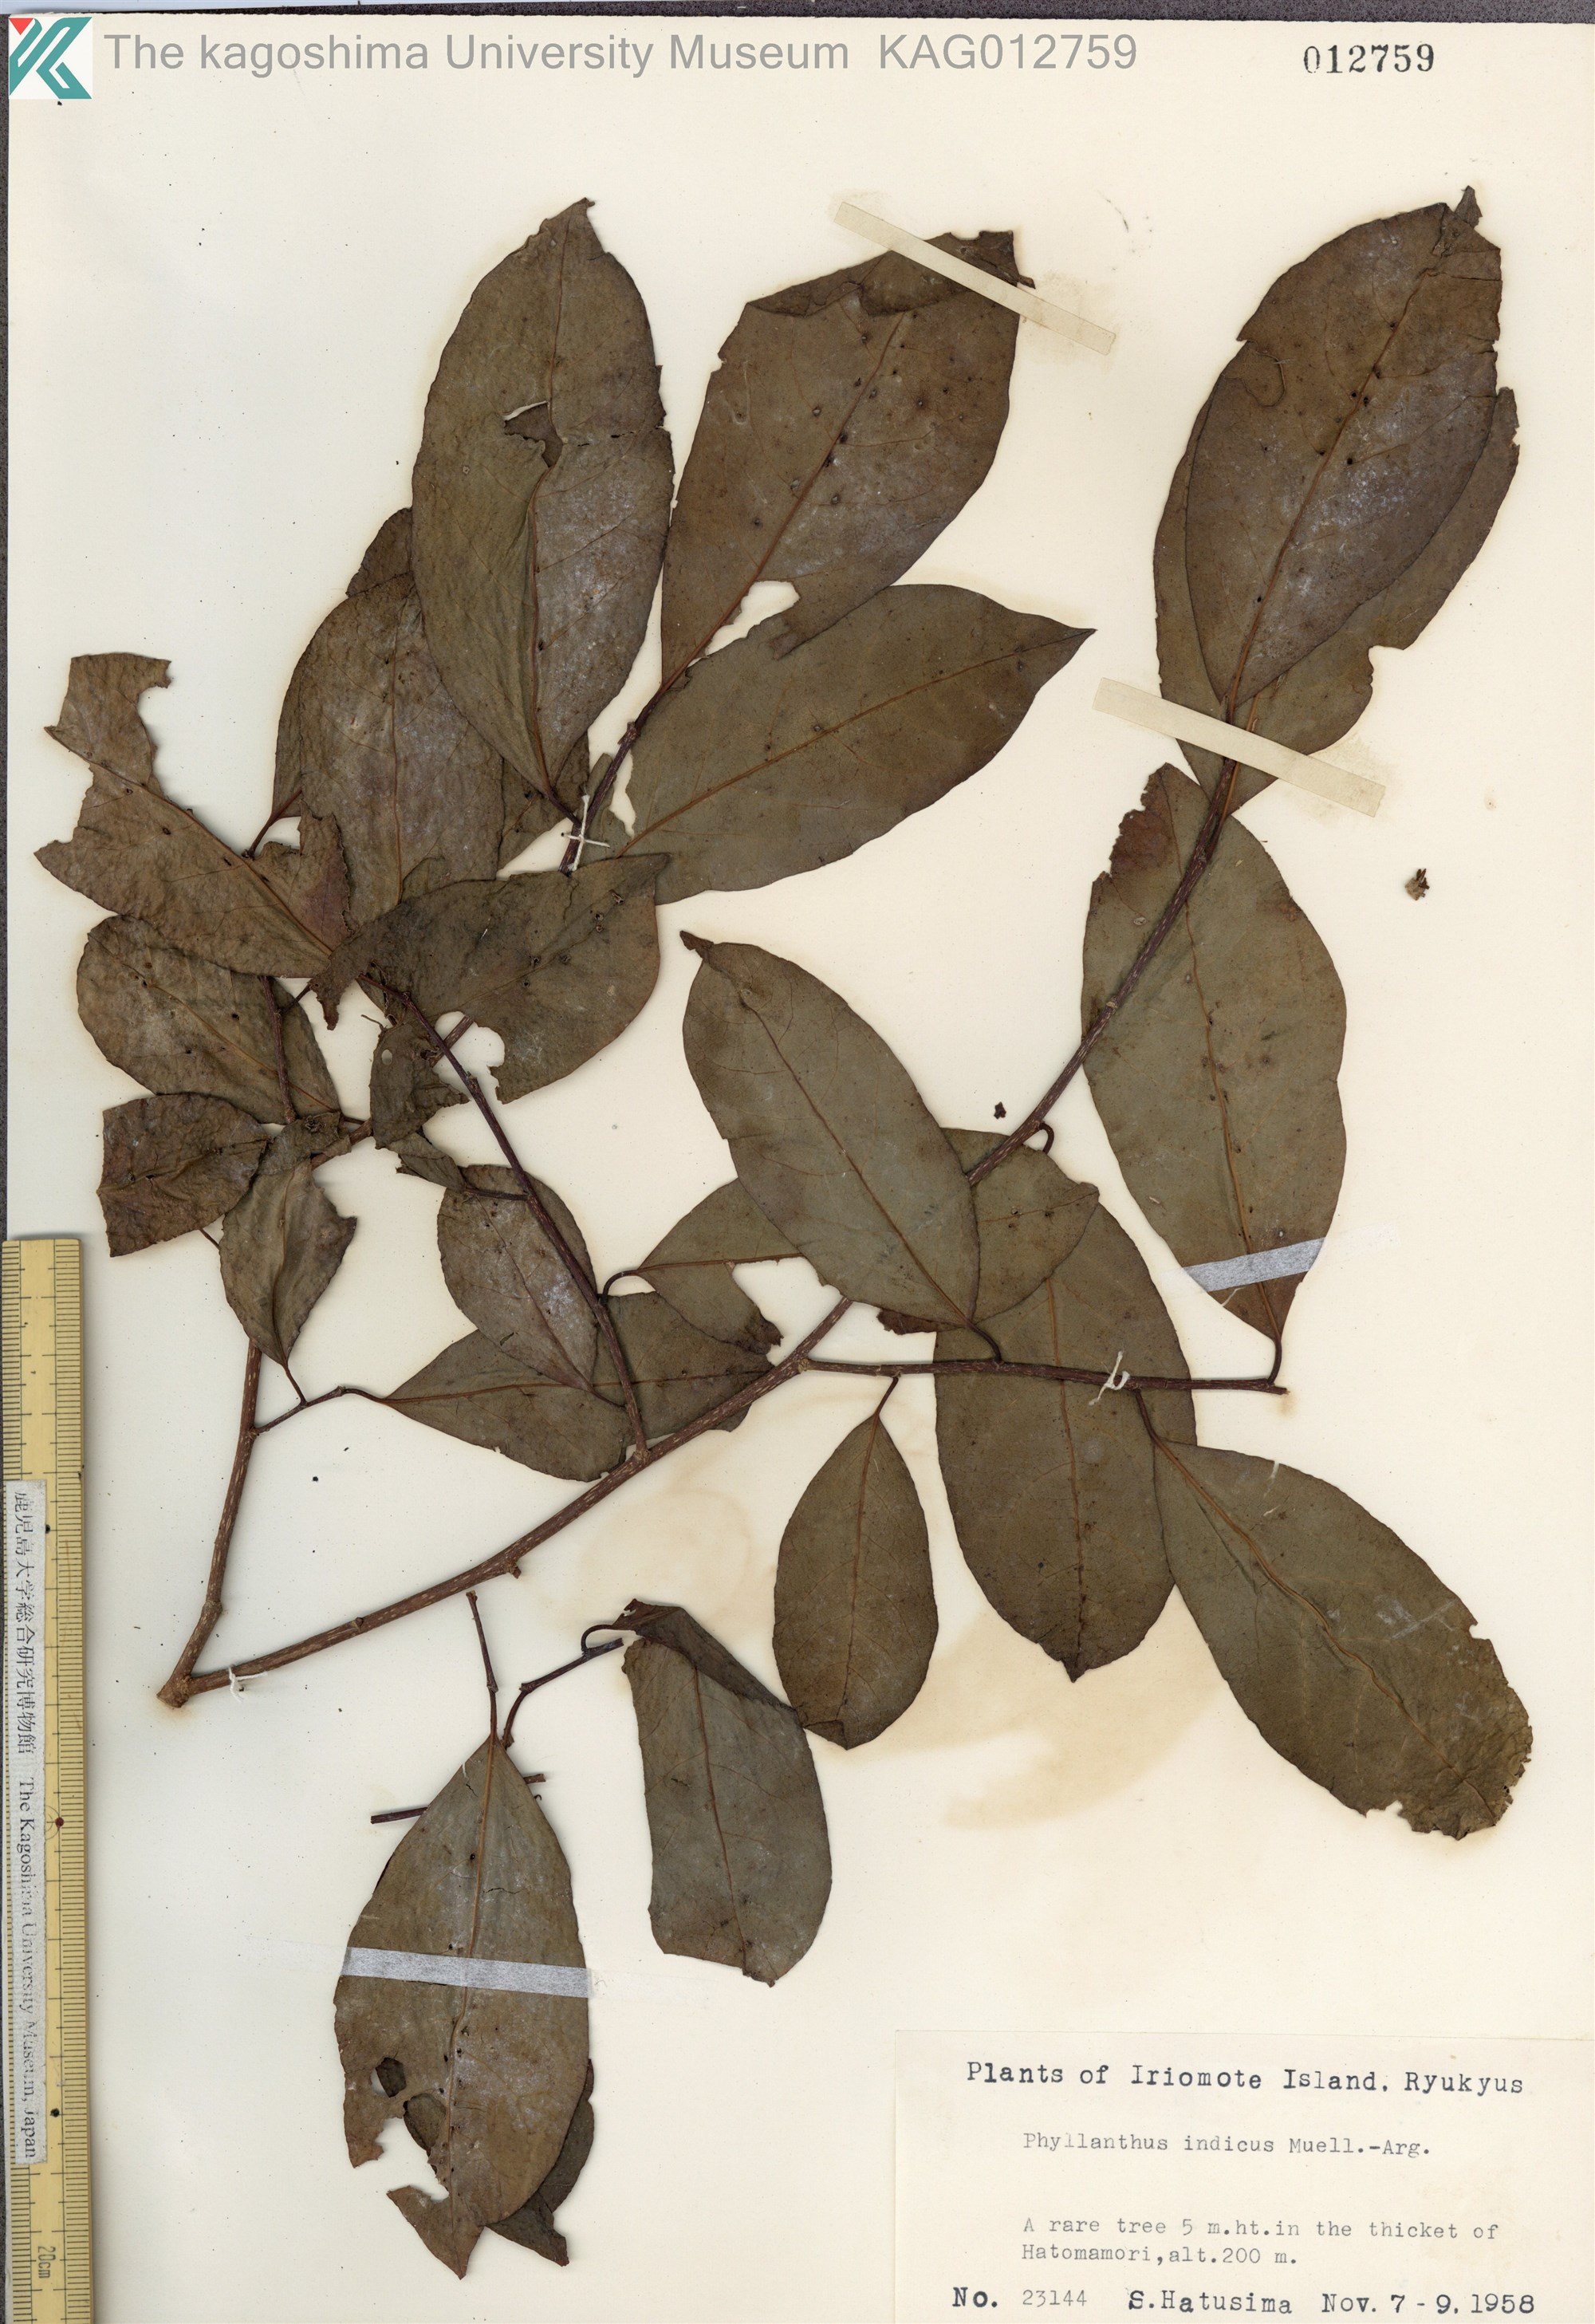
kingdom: Plantae
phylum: Tracheophyta
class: Magnoliopsida
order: Malpighiales
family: Phyllanthaceae
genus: Margaritaria
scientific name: Margaritaria indica
